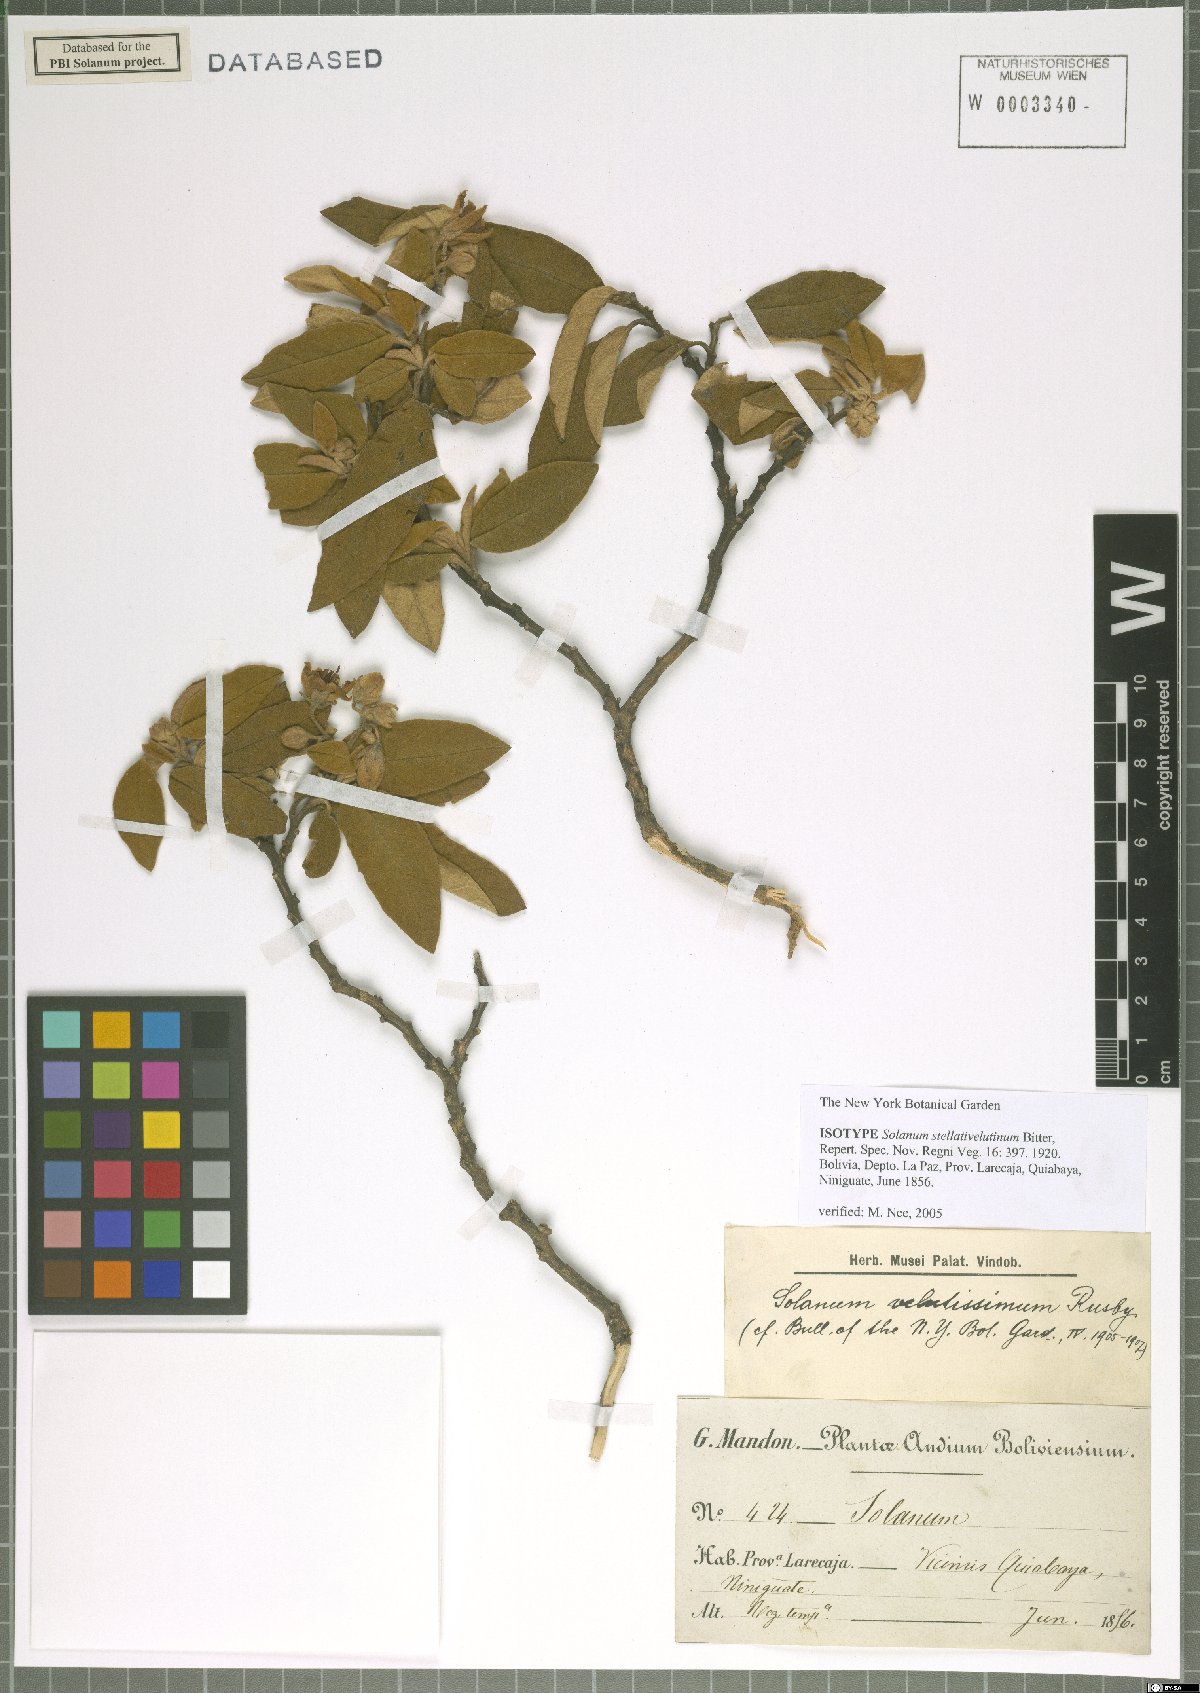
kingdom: Plantae
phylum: Tracheophyta
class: Magnoliopsida
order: Solanales
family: Solanaceae
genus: Solanum
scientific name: Solanum stellativelutinum
